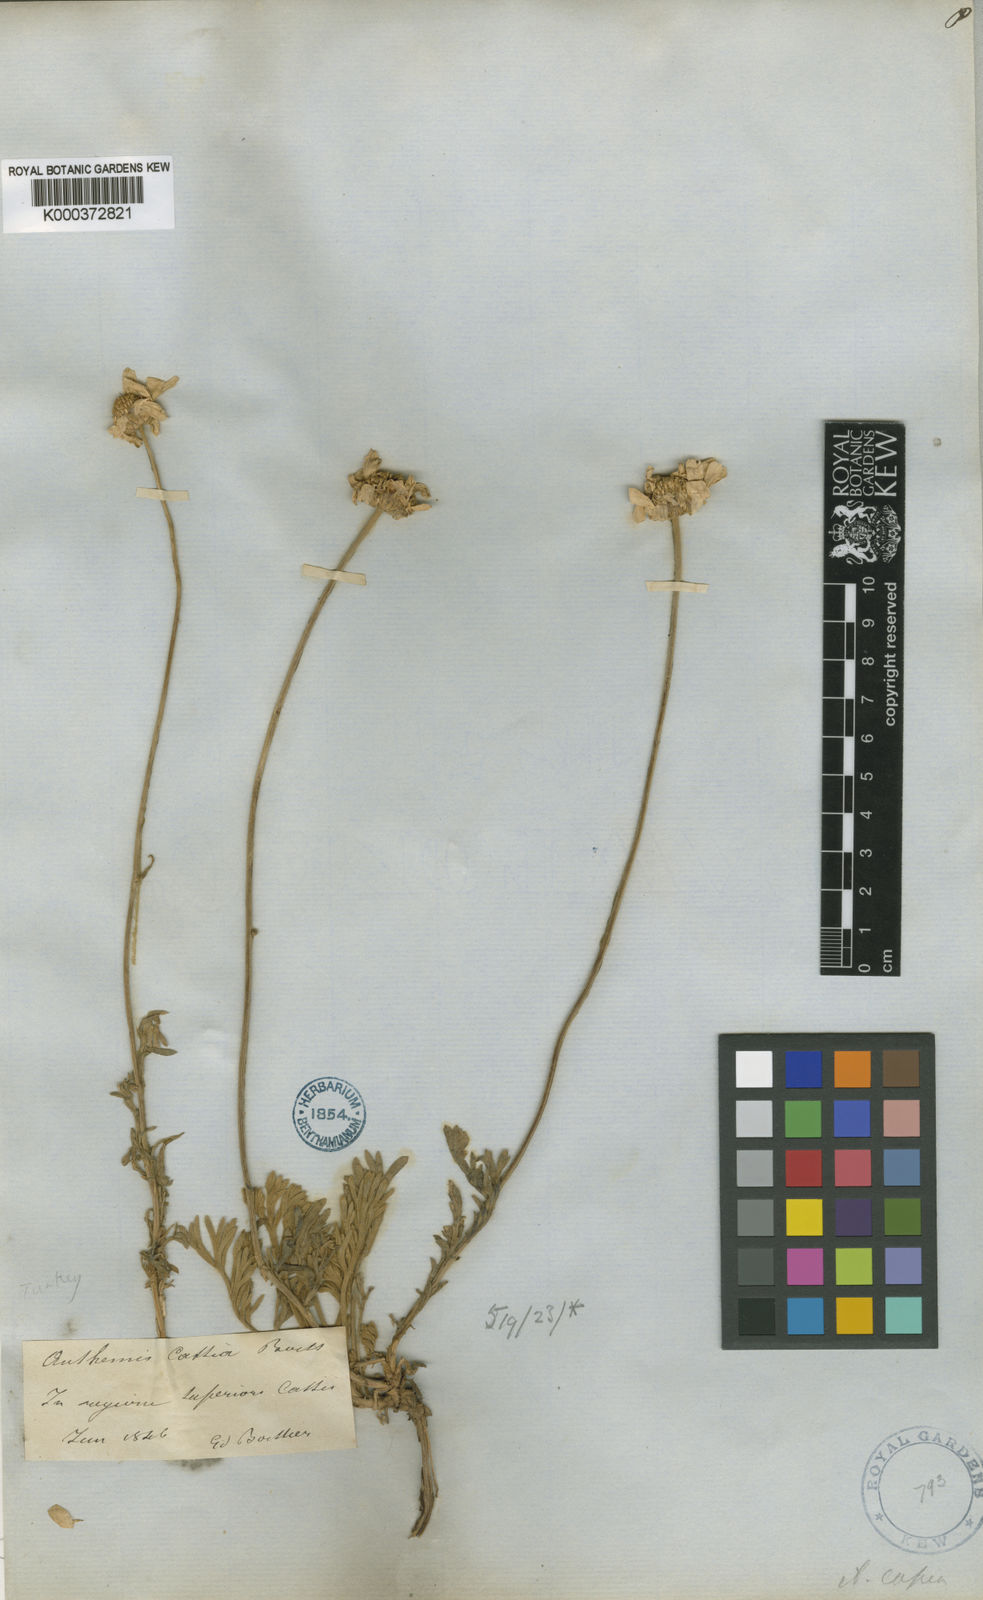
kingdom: Plantae
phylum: Tracheophyta
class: Magnoliopsida
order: Asterales
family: Asteraceae
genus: Anthemis
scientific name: Anthemis cretica
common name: Mountain dog-daisy
